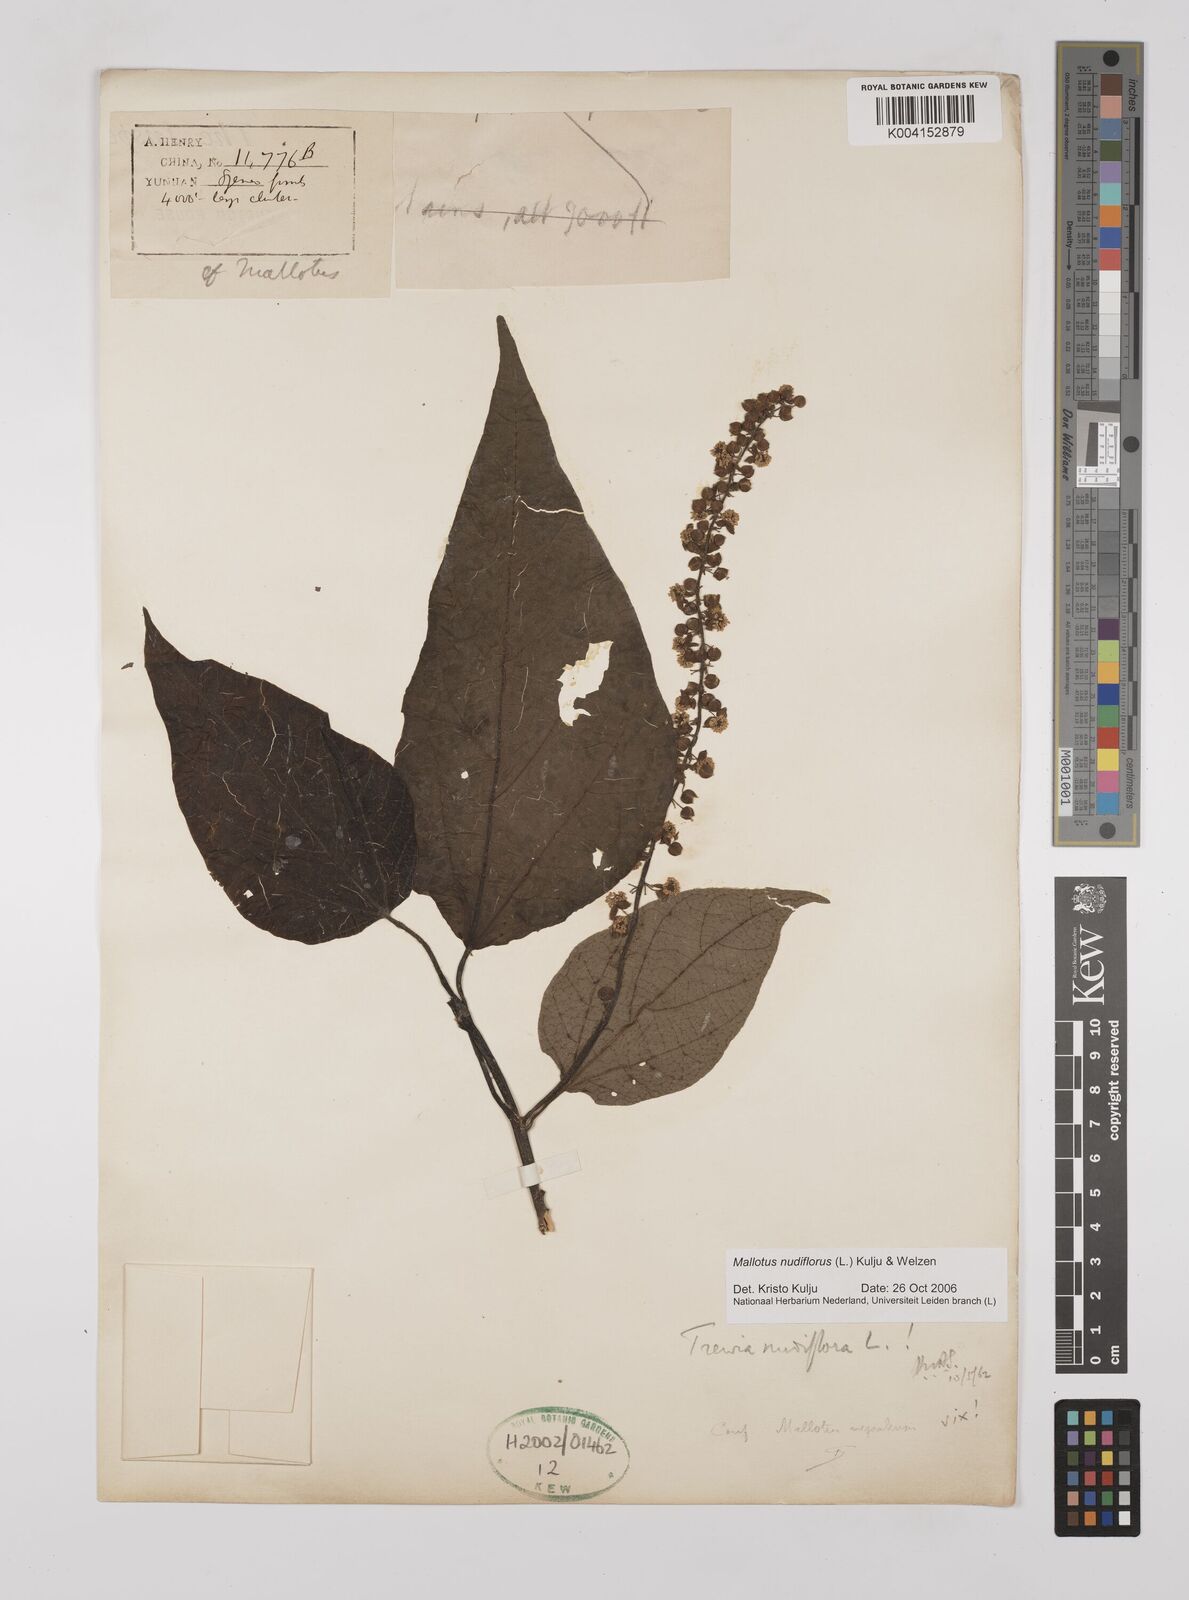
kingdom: Plantae
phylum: Tracheophyta
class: Magnoliopsida
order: Malpighiales
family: Euphorbiaceae
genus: Mallotus
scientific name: Mallotus nudiflorus
